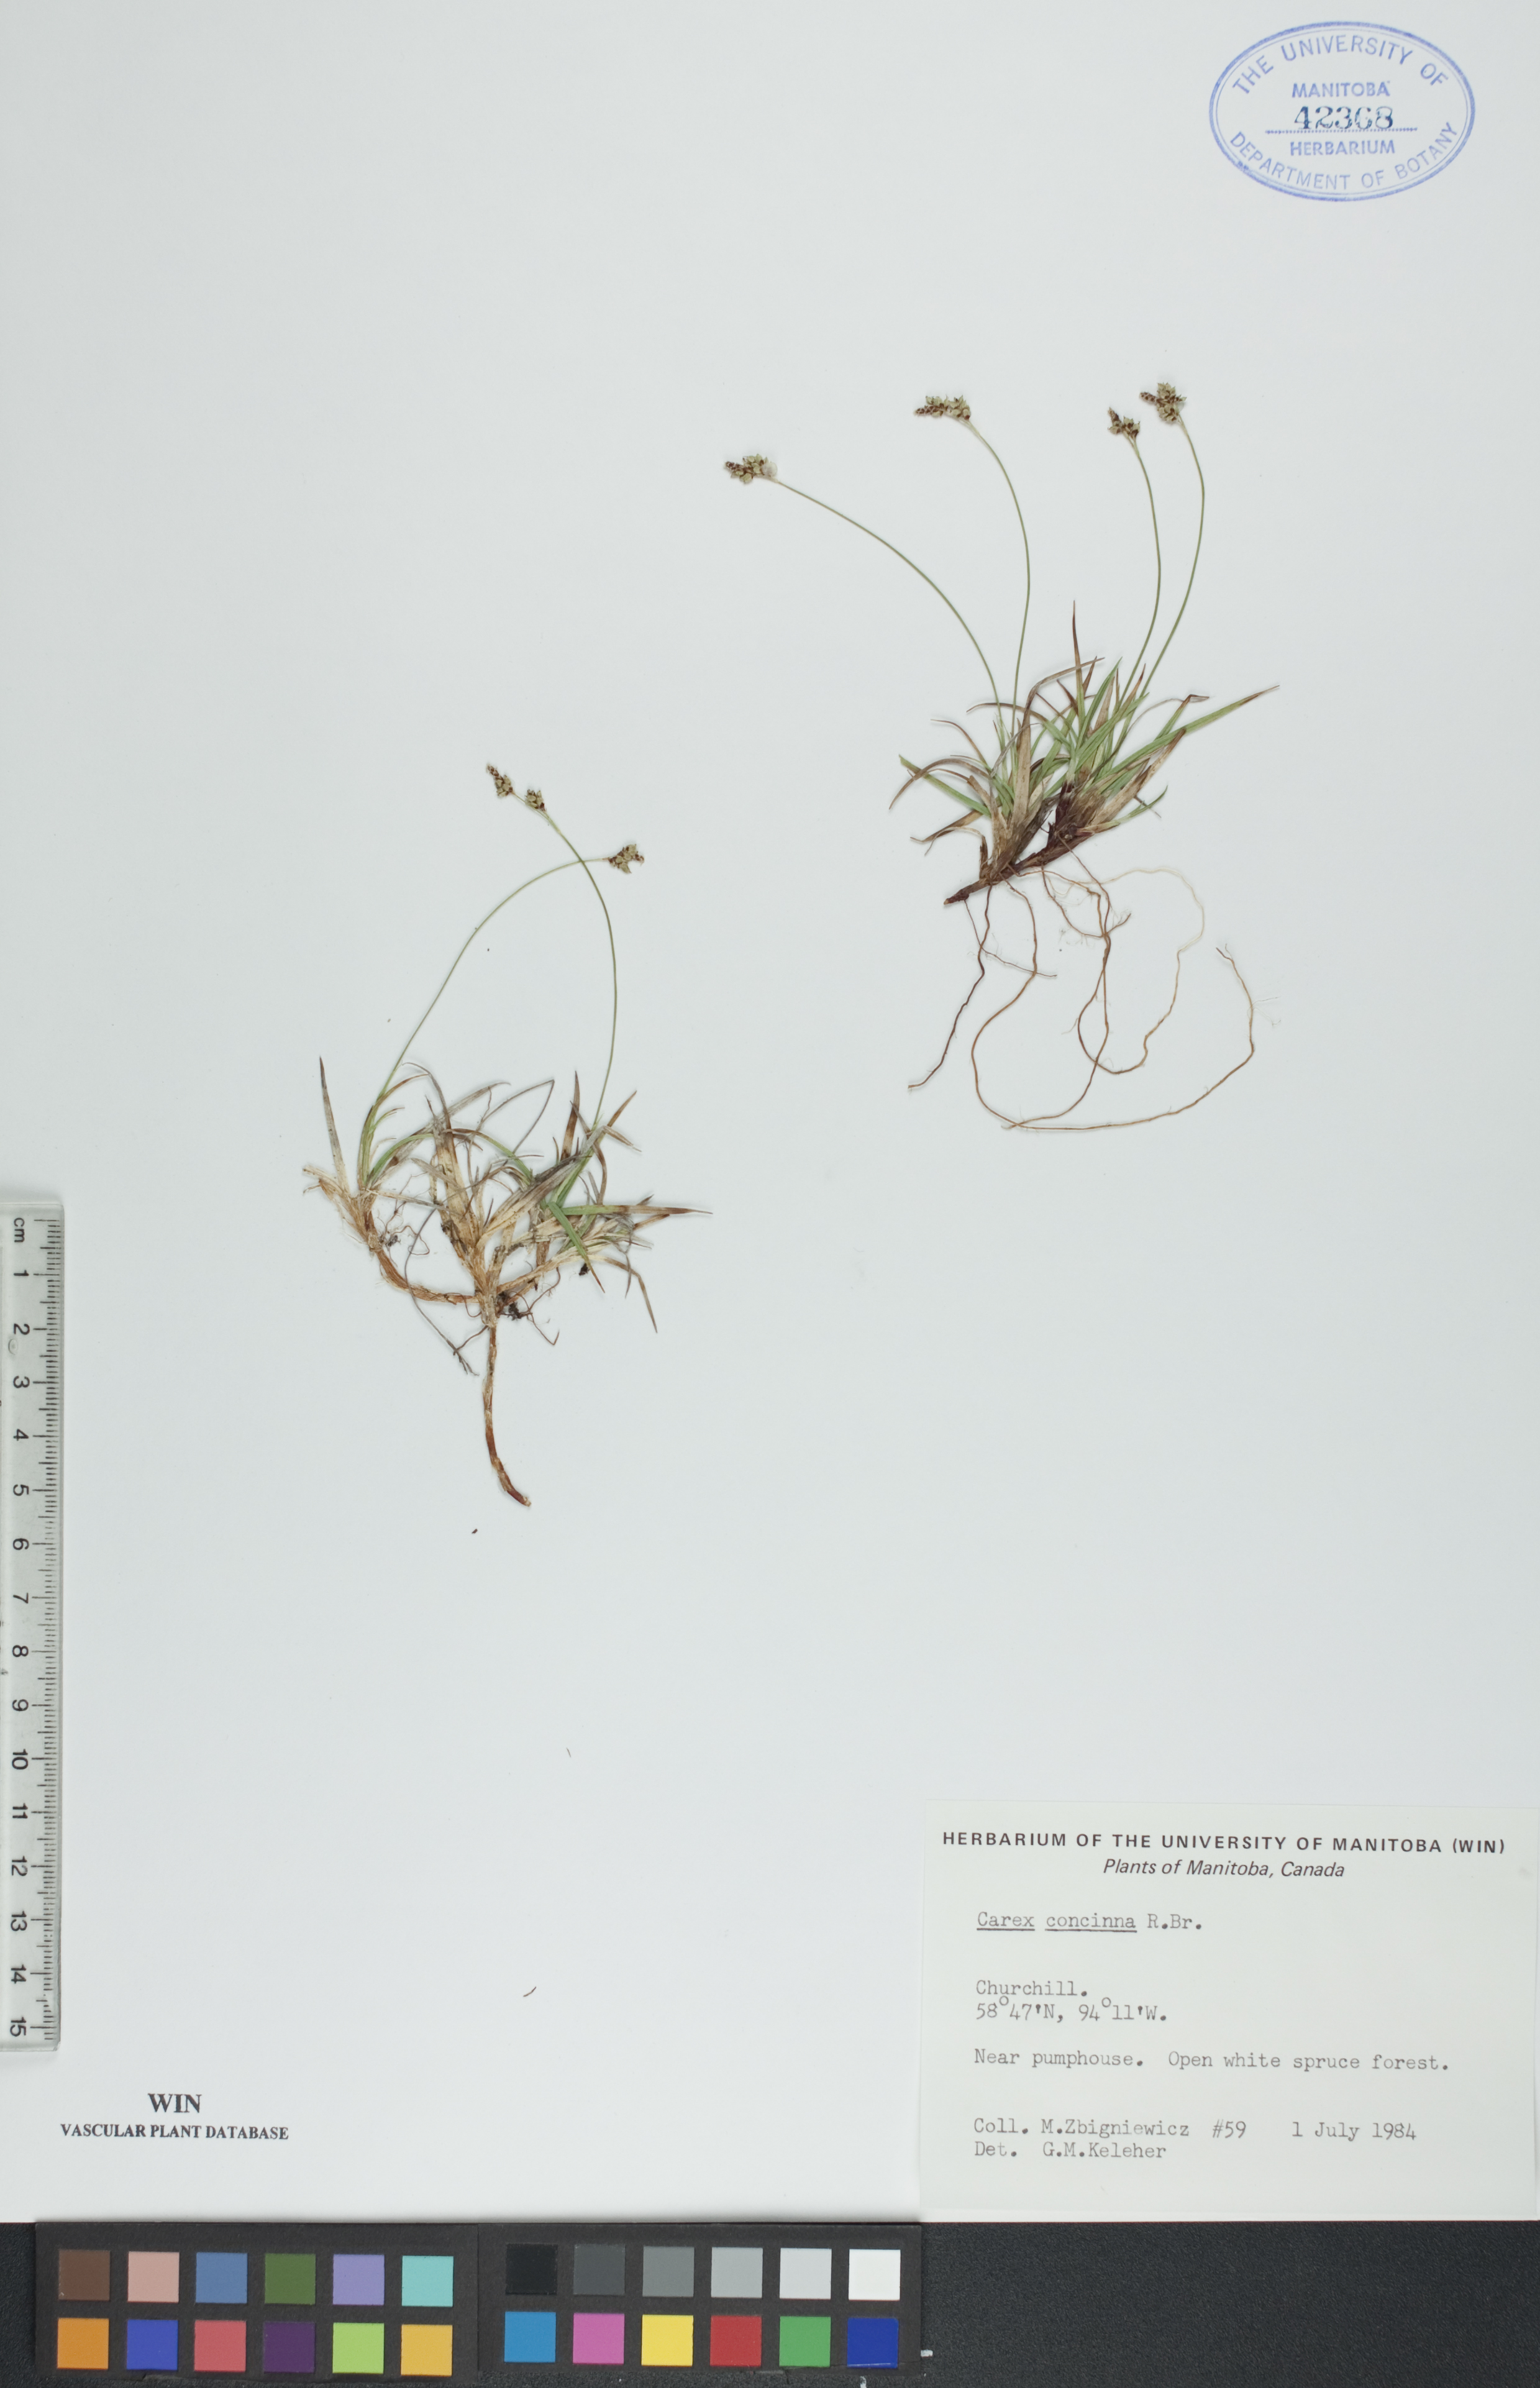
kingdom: Plantae
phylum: Tracheophyta
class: Liliopsida
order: Poales
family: Cyperaceae
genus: Carex
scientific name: Carex concinna
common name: Beautiful sedge
